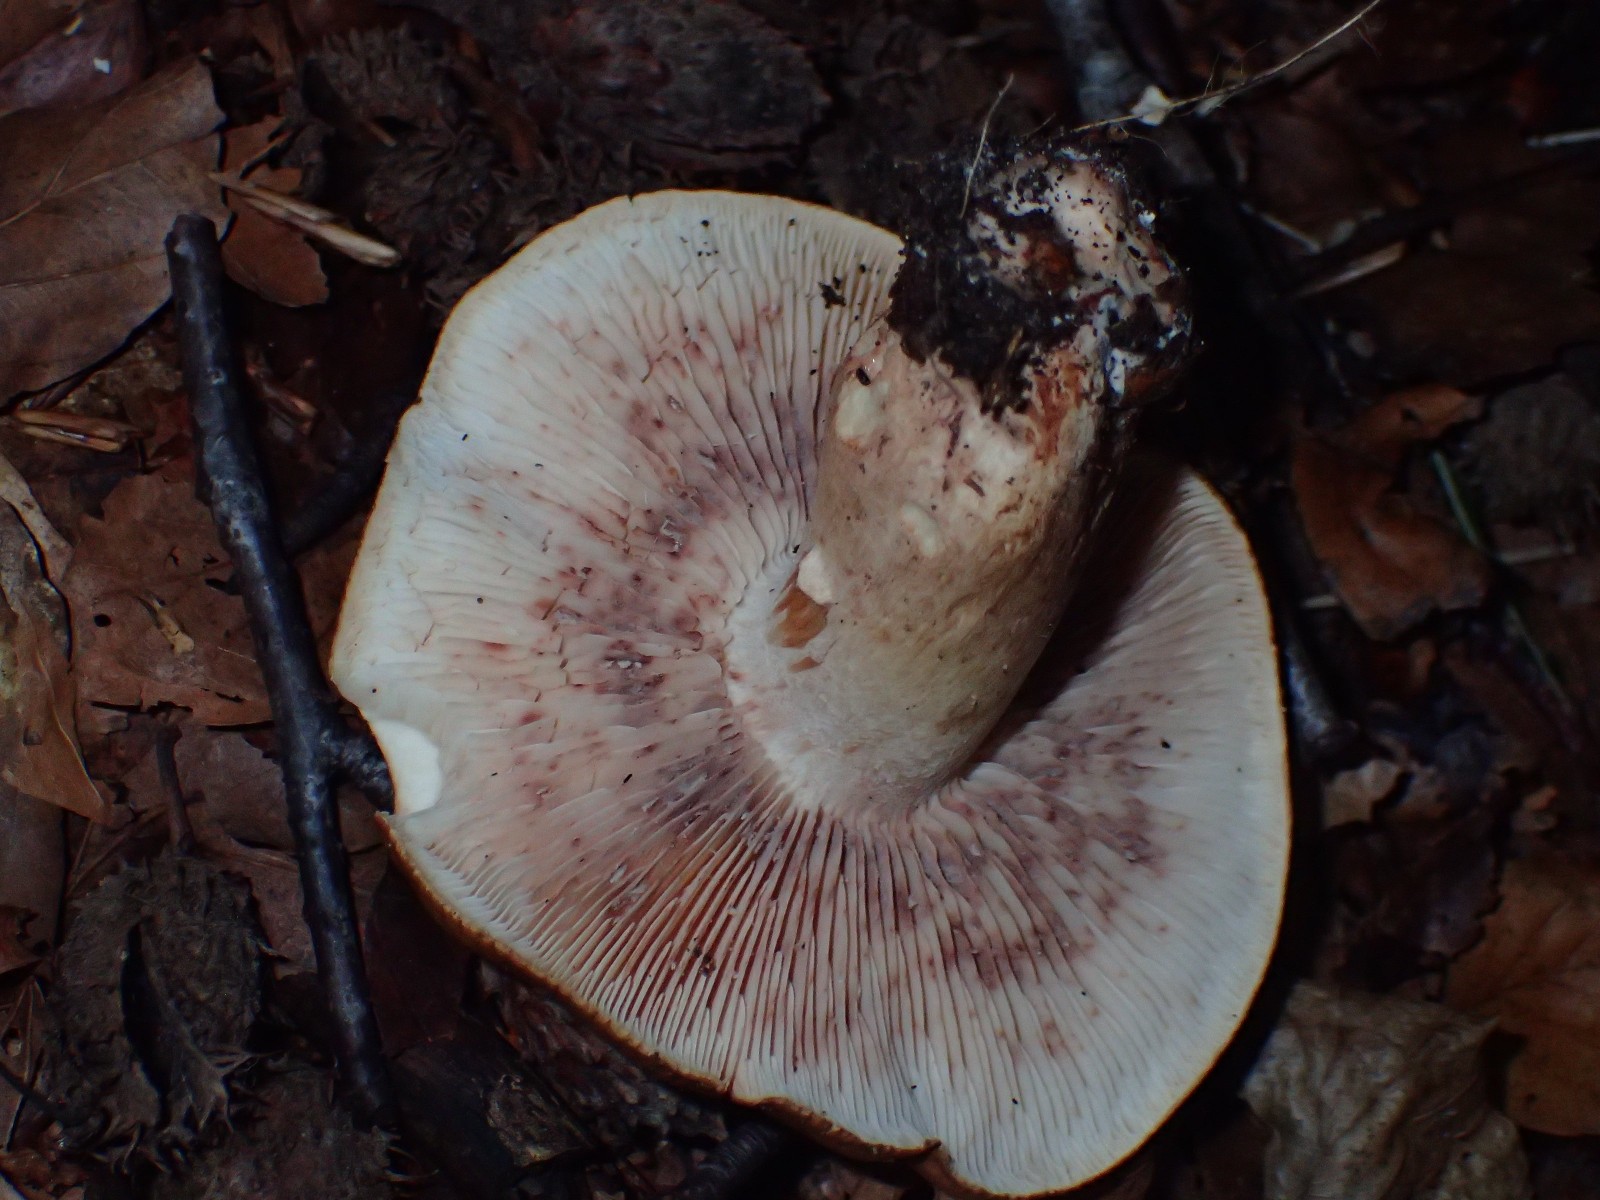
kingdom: Fungi
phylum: Basidiomycota
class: Agaricomycetes
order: Agaricales
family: Tricholomataceae
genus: Tricholoma
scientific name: Tricholoma ustale
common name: sveden ridderhat
